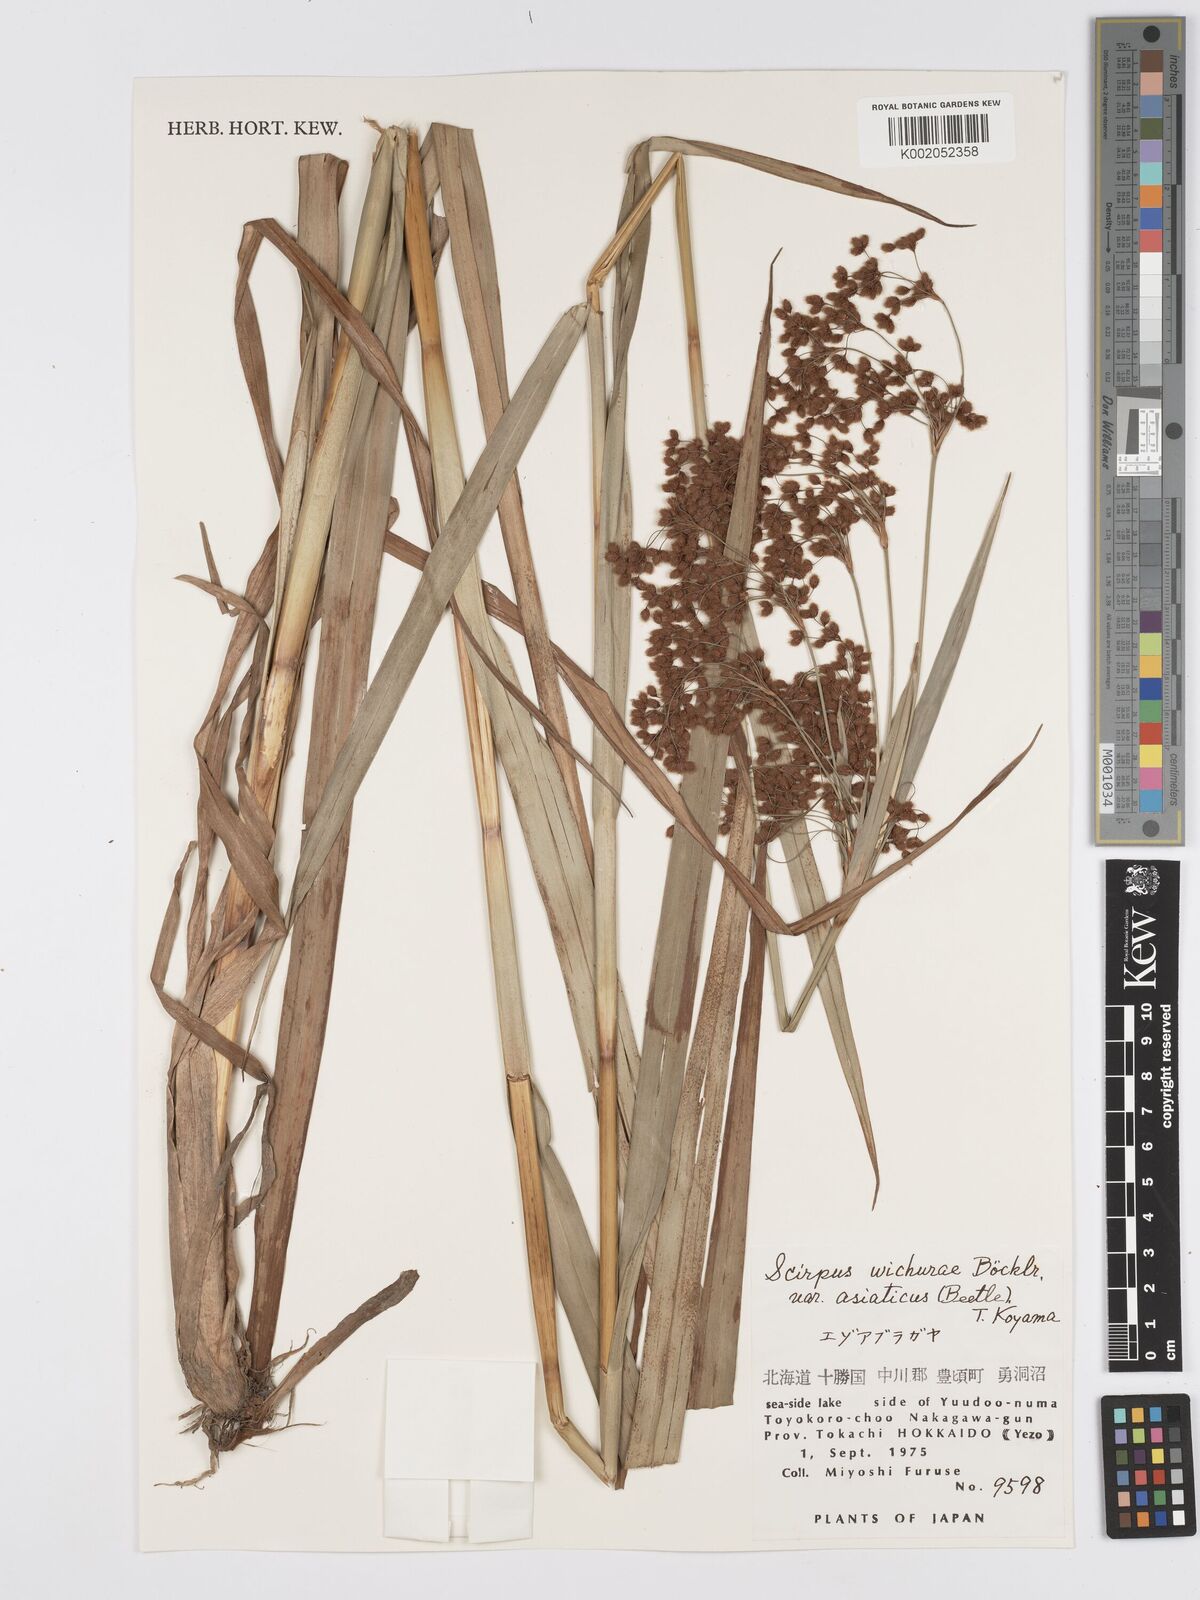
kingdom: Plantae
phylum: Tracheophyta
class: Liliopsida
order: Poales
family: Cyperaceae
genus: Scirpus
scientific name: Scirpus lineatus
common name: Drooping bulrush
